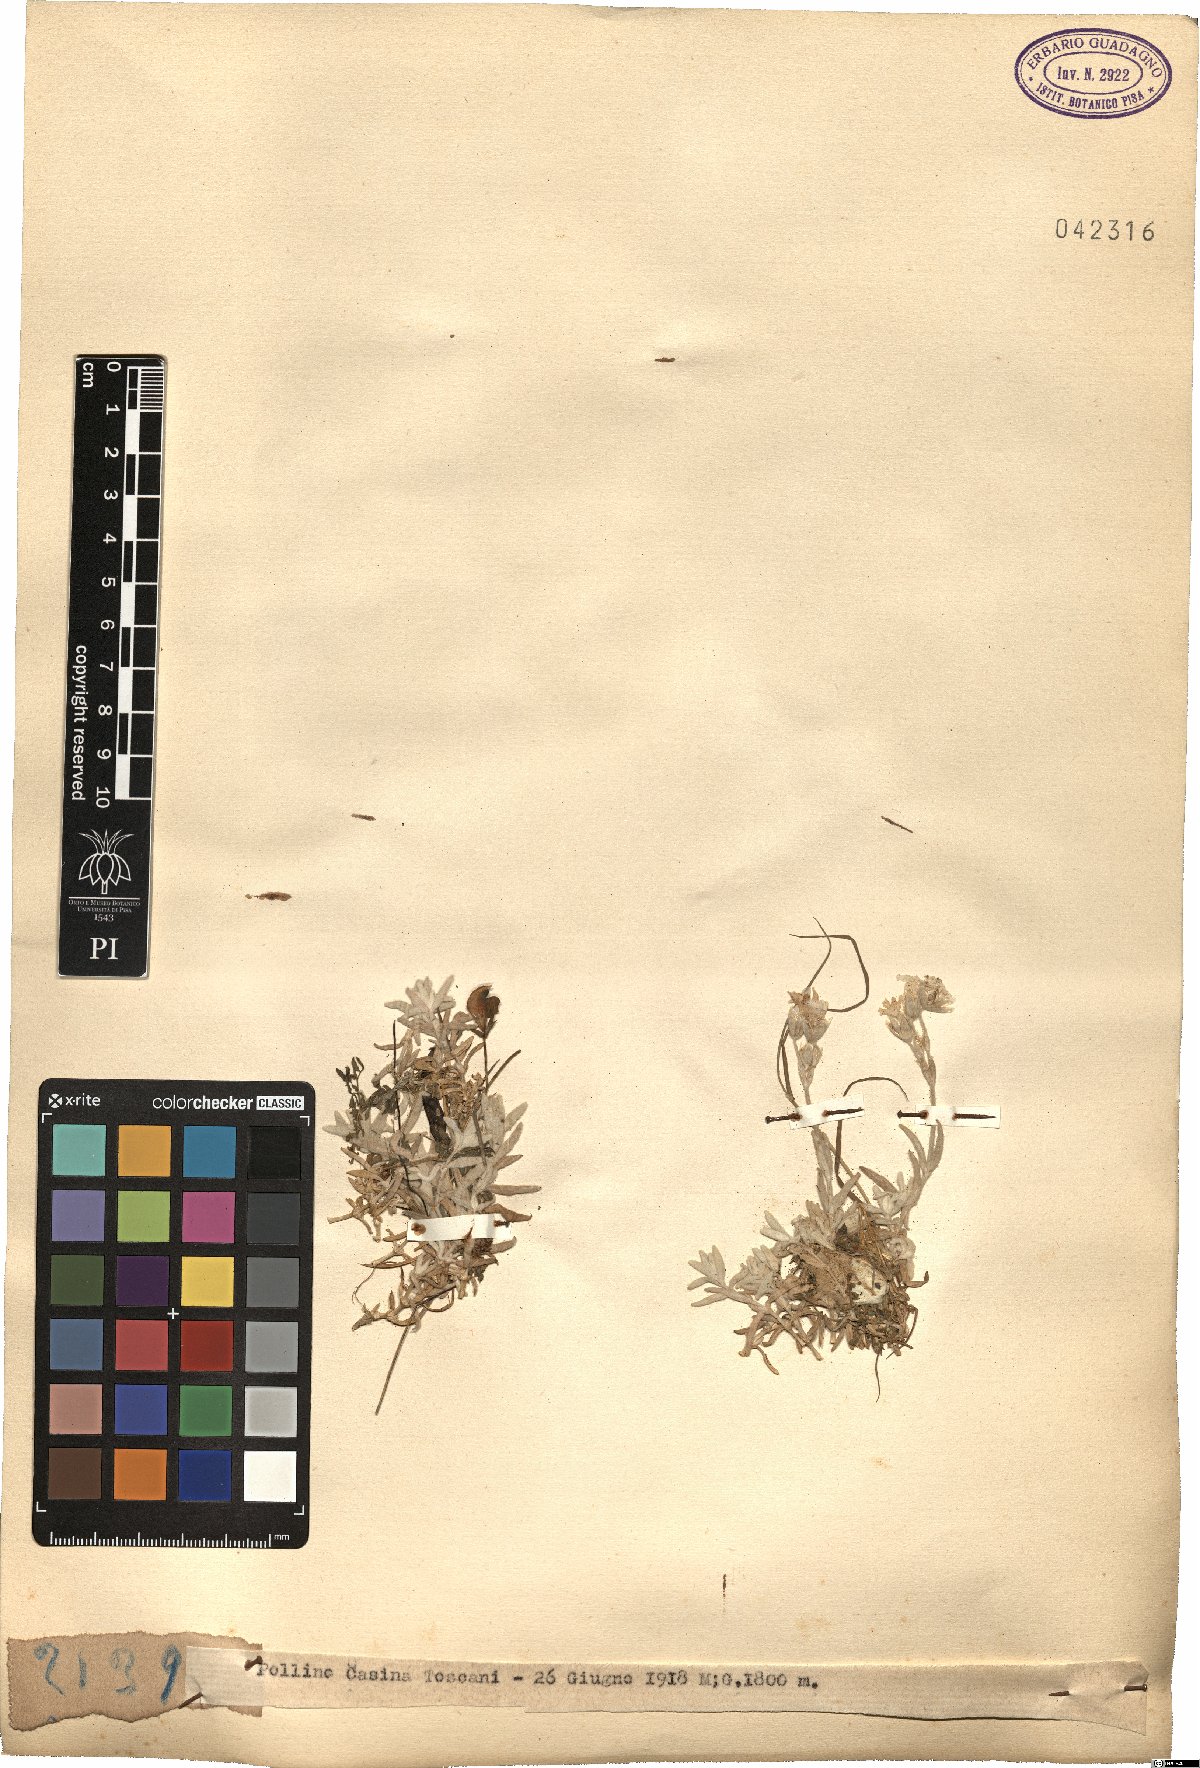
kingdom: Plantae
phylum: Tracheophyta
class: Magnoliopsida
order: Caryophyllales
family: Caryophyllaceae
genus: Cerastium
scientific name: Cerastium
